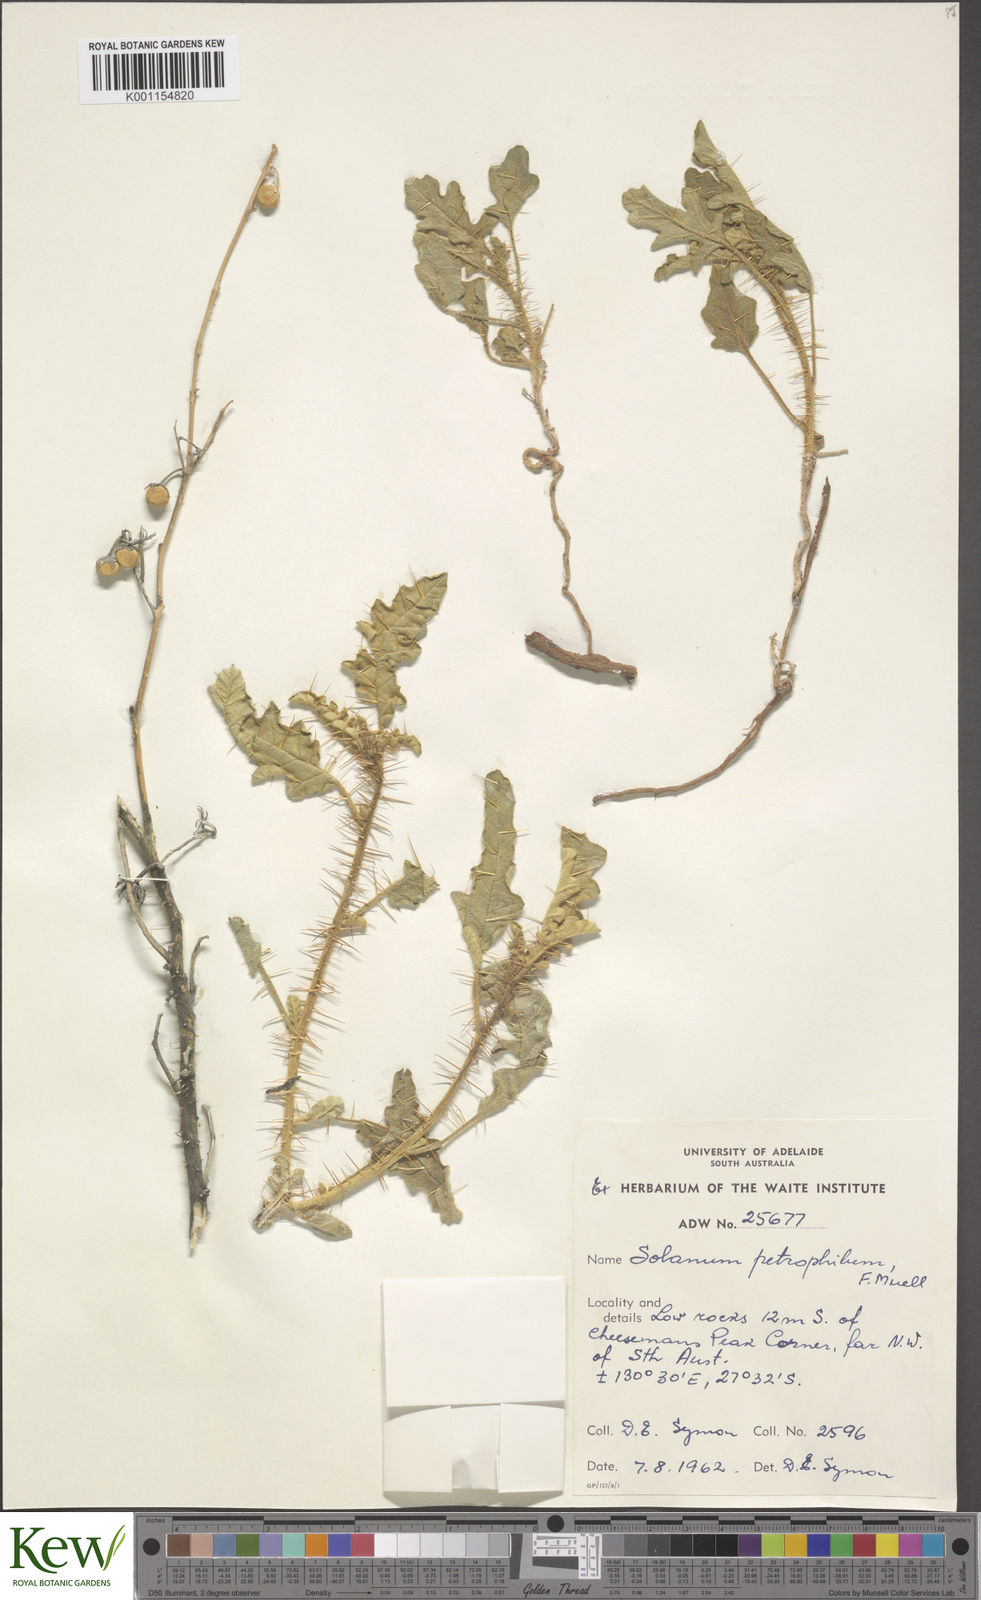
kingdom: Plantae
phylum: Tracheophyta
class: Magnoliopsida
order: Solanales
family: Solanaceae
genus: Solanum
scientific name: Solanum petrophilum
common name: Rock nightshade
